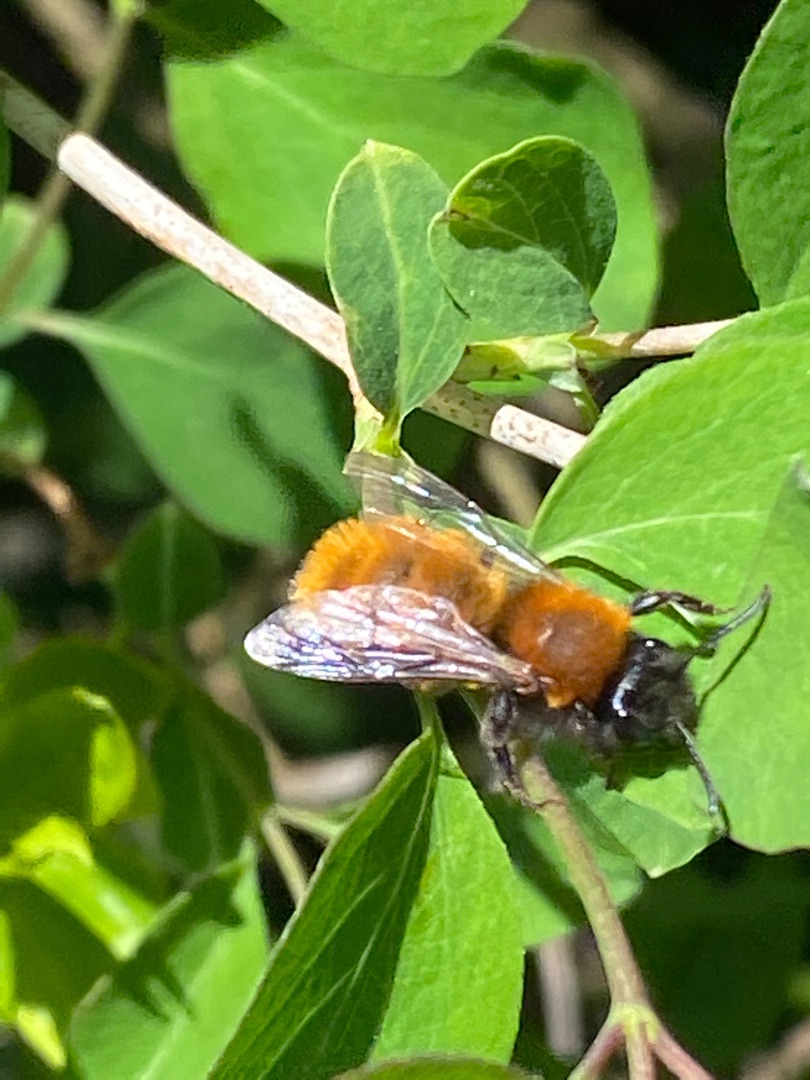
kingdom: Animalia
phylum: Arthropoda
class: Insecta
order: Hymenoptera
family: Andrenidae
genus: Andrena
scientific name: Andrena fulva
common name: Rødpelset jordbi
